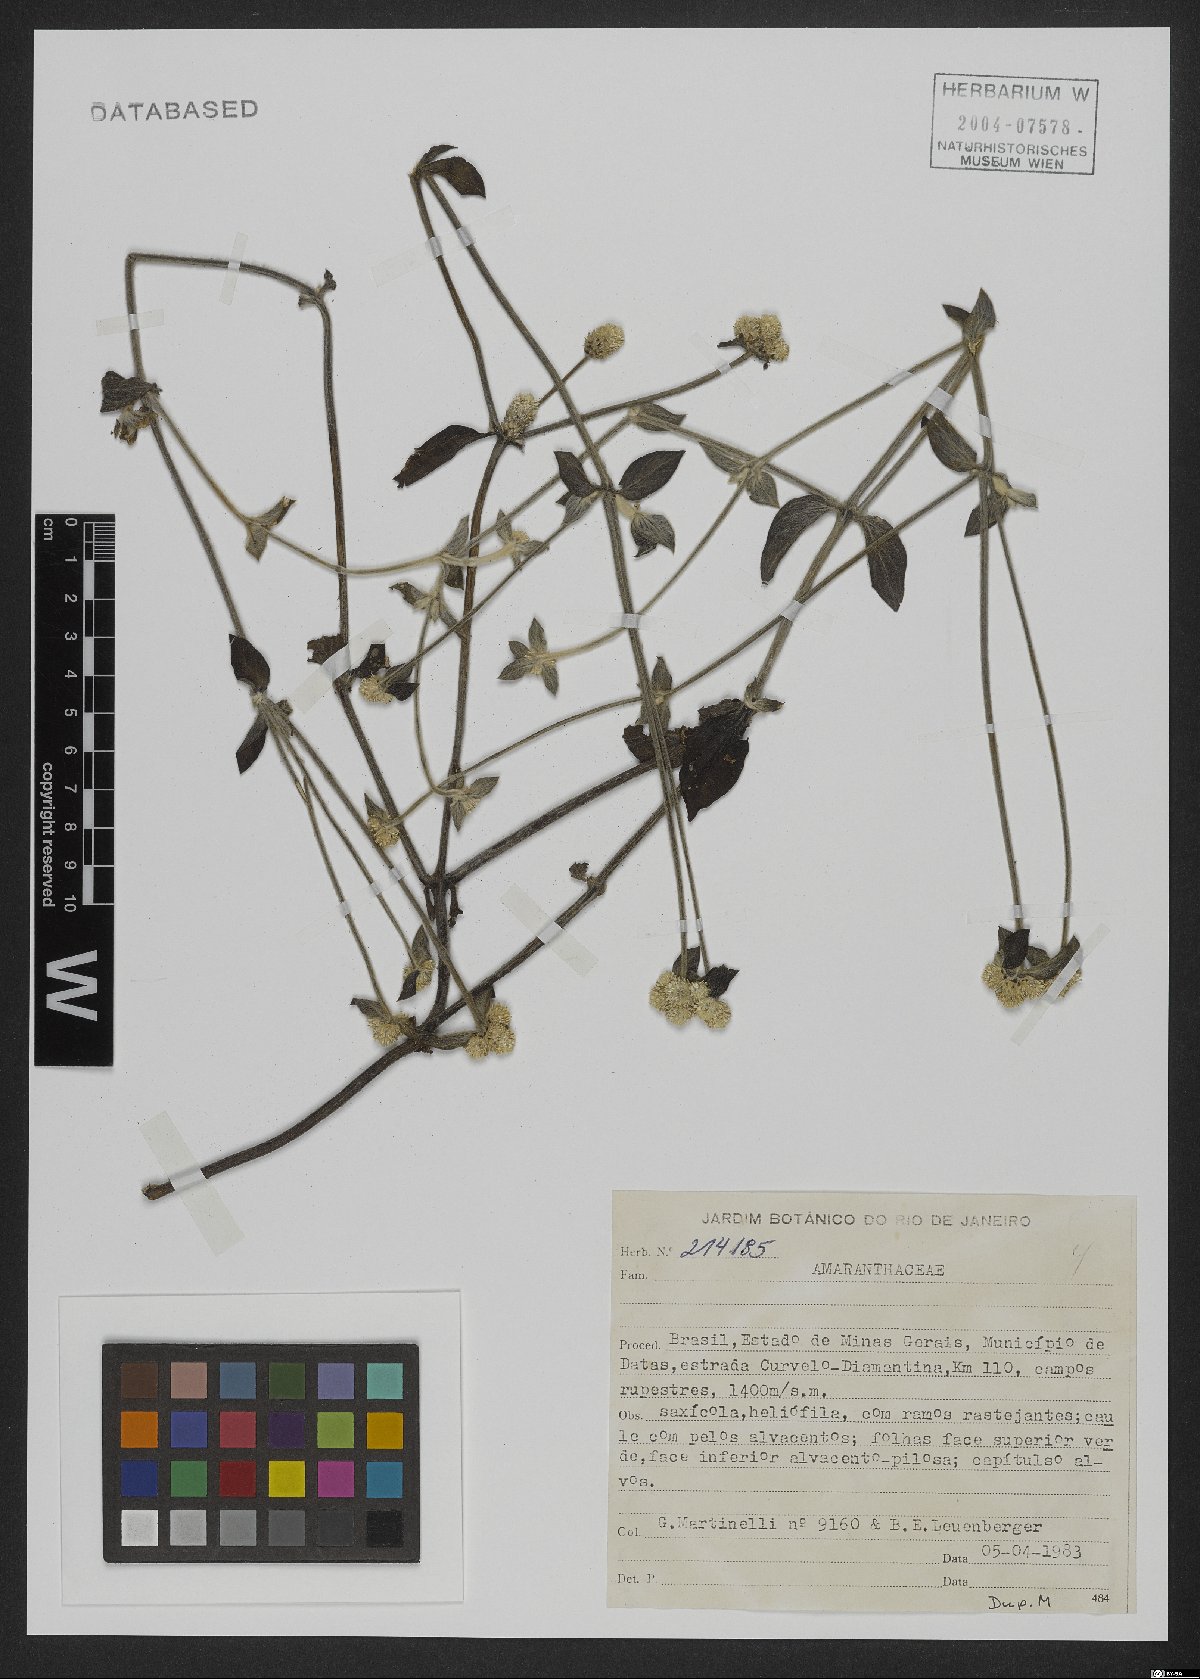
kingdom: Plantae
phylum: Tracheophyta
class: Magnoliopsida
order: Caryophyllales
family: Amaranthaceae
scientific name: Amaranthaceae
